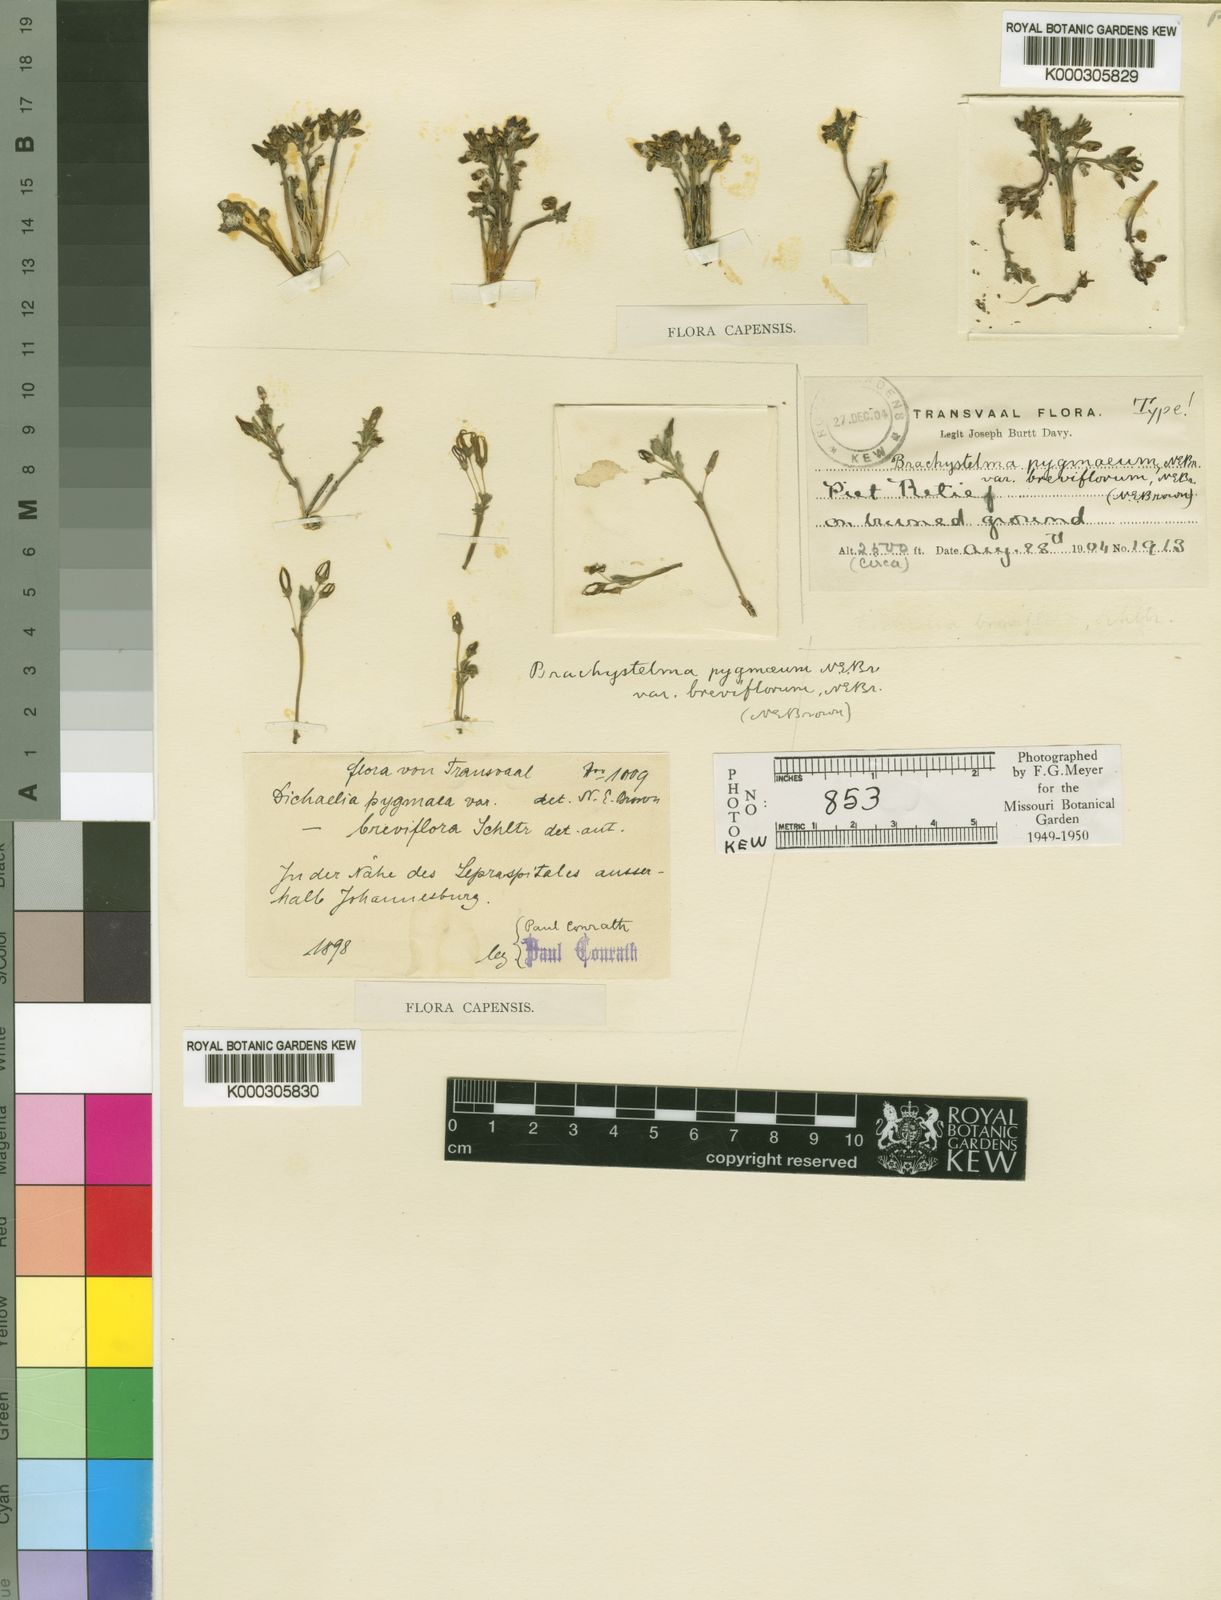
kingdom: Plantae
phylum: Tracheophyta
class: Magnoliopsida
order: Gentianales
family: Apocynaceae
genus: Ceropegia
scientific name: Ceropegia breviflora
